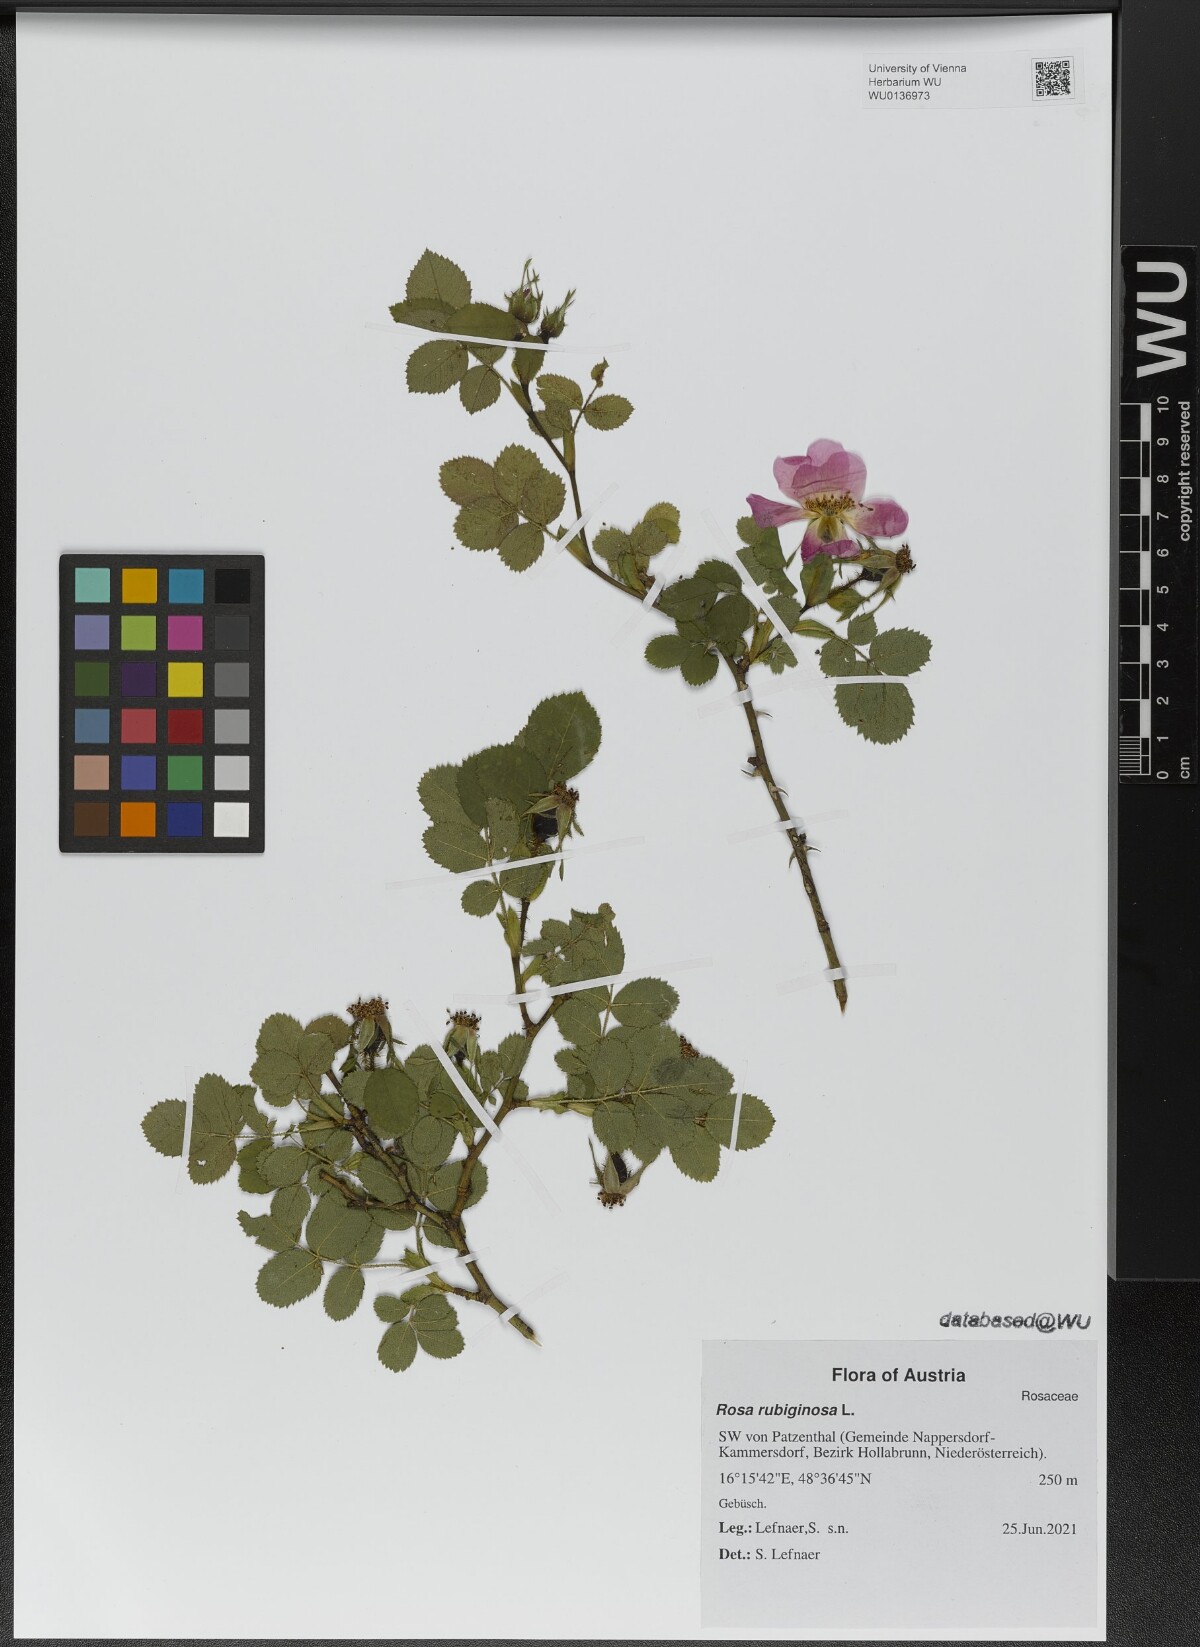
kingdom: Plantae
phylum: Tracheophyta
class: Magnoliopsida
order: Rosales
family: Rosaceae
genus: Rosa
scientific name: Rosa rubiginosa
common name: Sweet-briar
